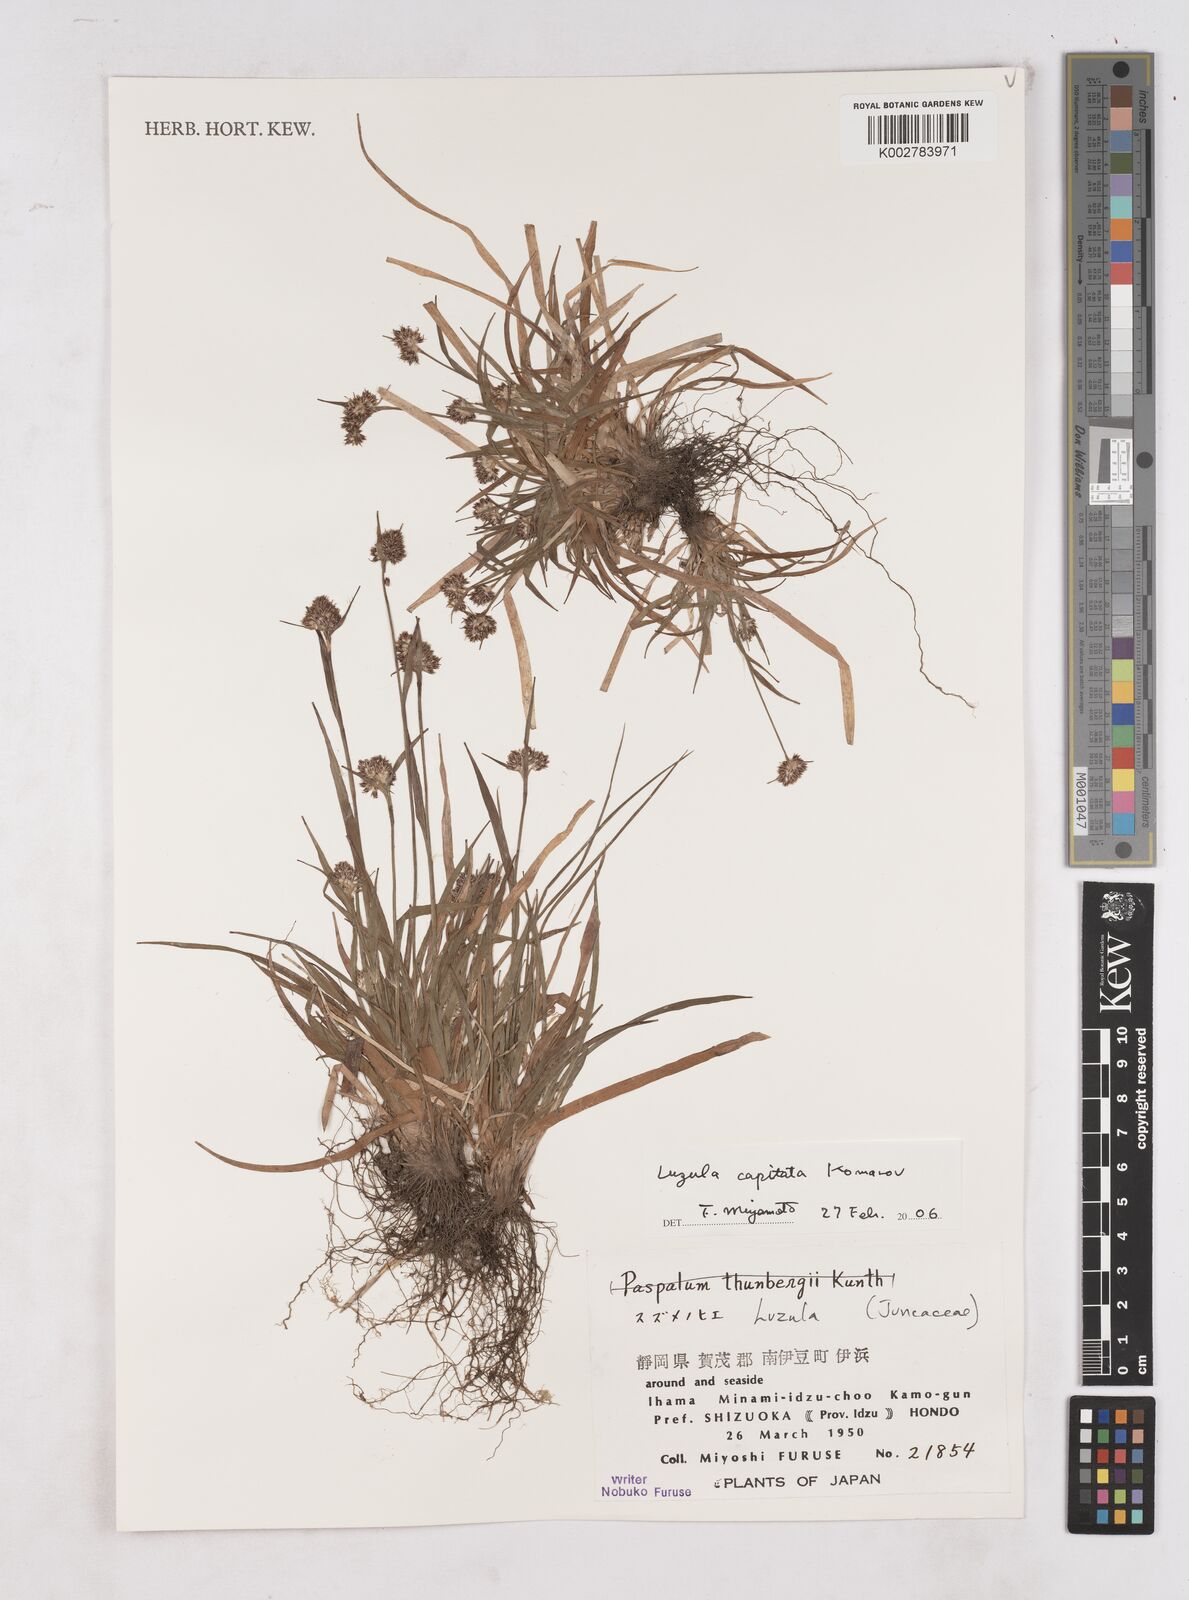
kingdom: Plantae
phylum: Tracheophyta
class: Liliopsida
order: Poales
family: Juncaceae
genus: Luzula
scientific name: Luzula capitata
